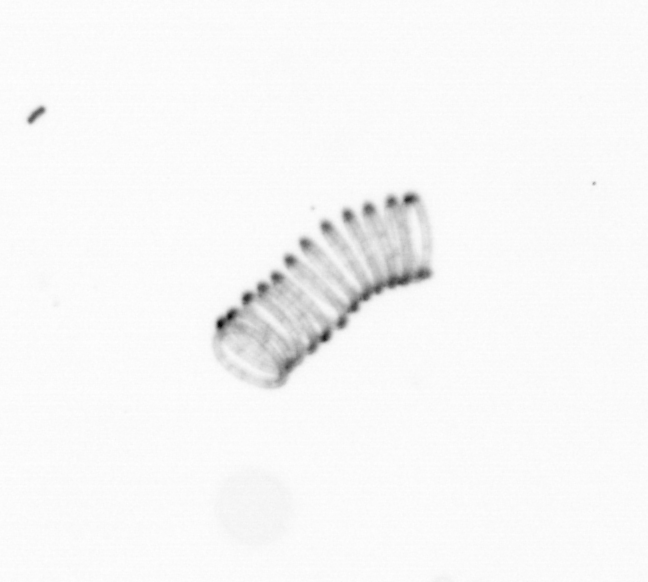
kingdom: Chromista
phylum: Ochrophyta
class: Bacillariophyceae
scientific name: Bacillariophyceae
